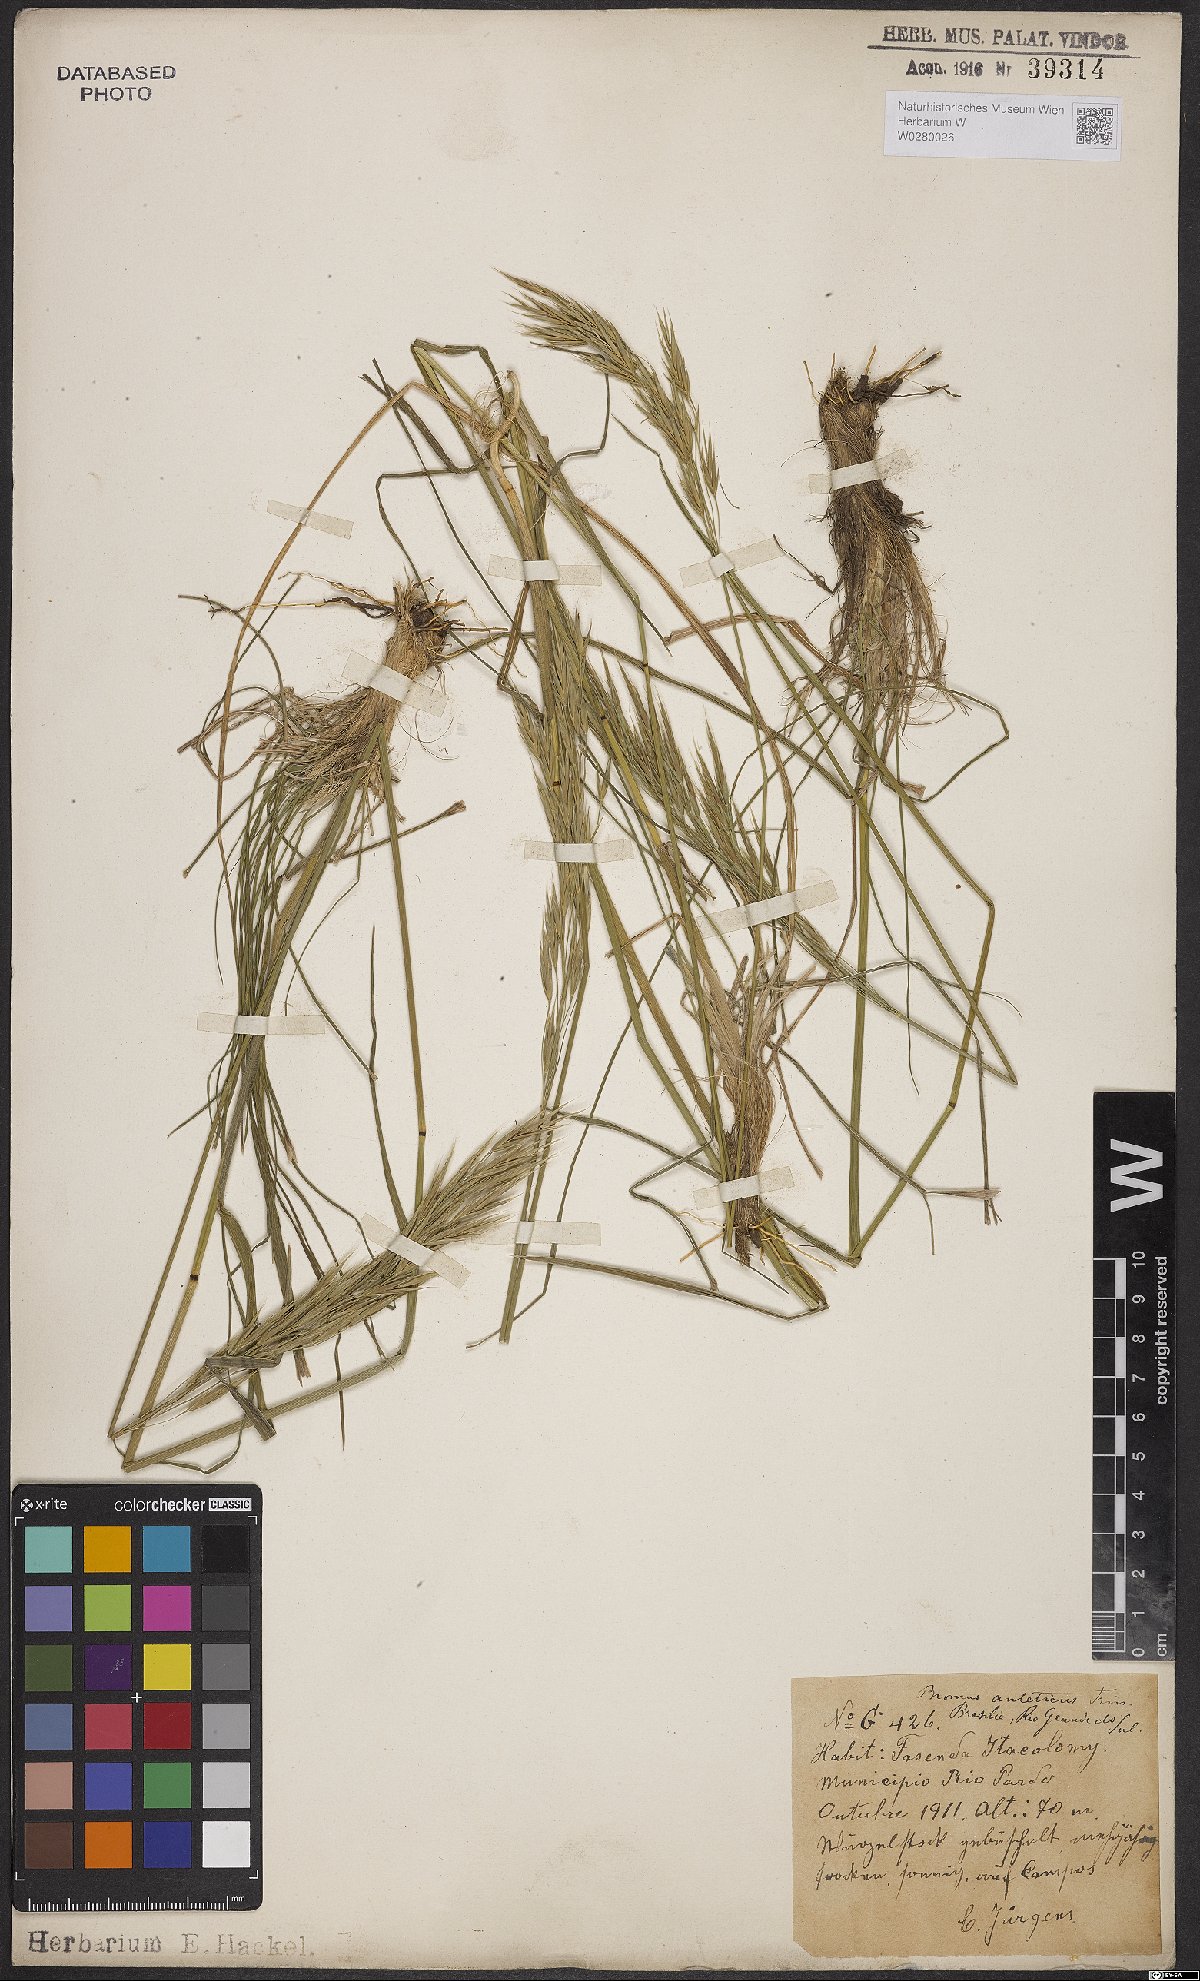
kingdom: Plantae
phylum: Tracheophyta
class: Liliopsida
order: Poales
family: Poaceae
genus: Bromus
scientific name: Bromus auleticus
